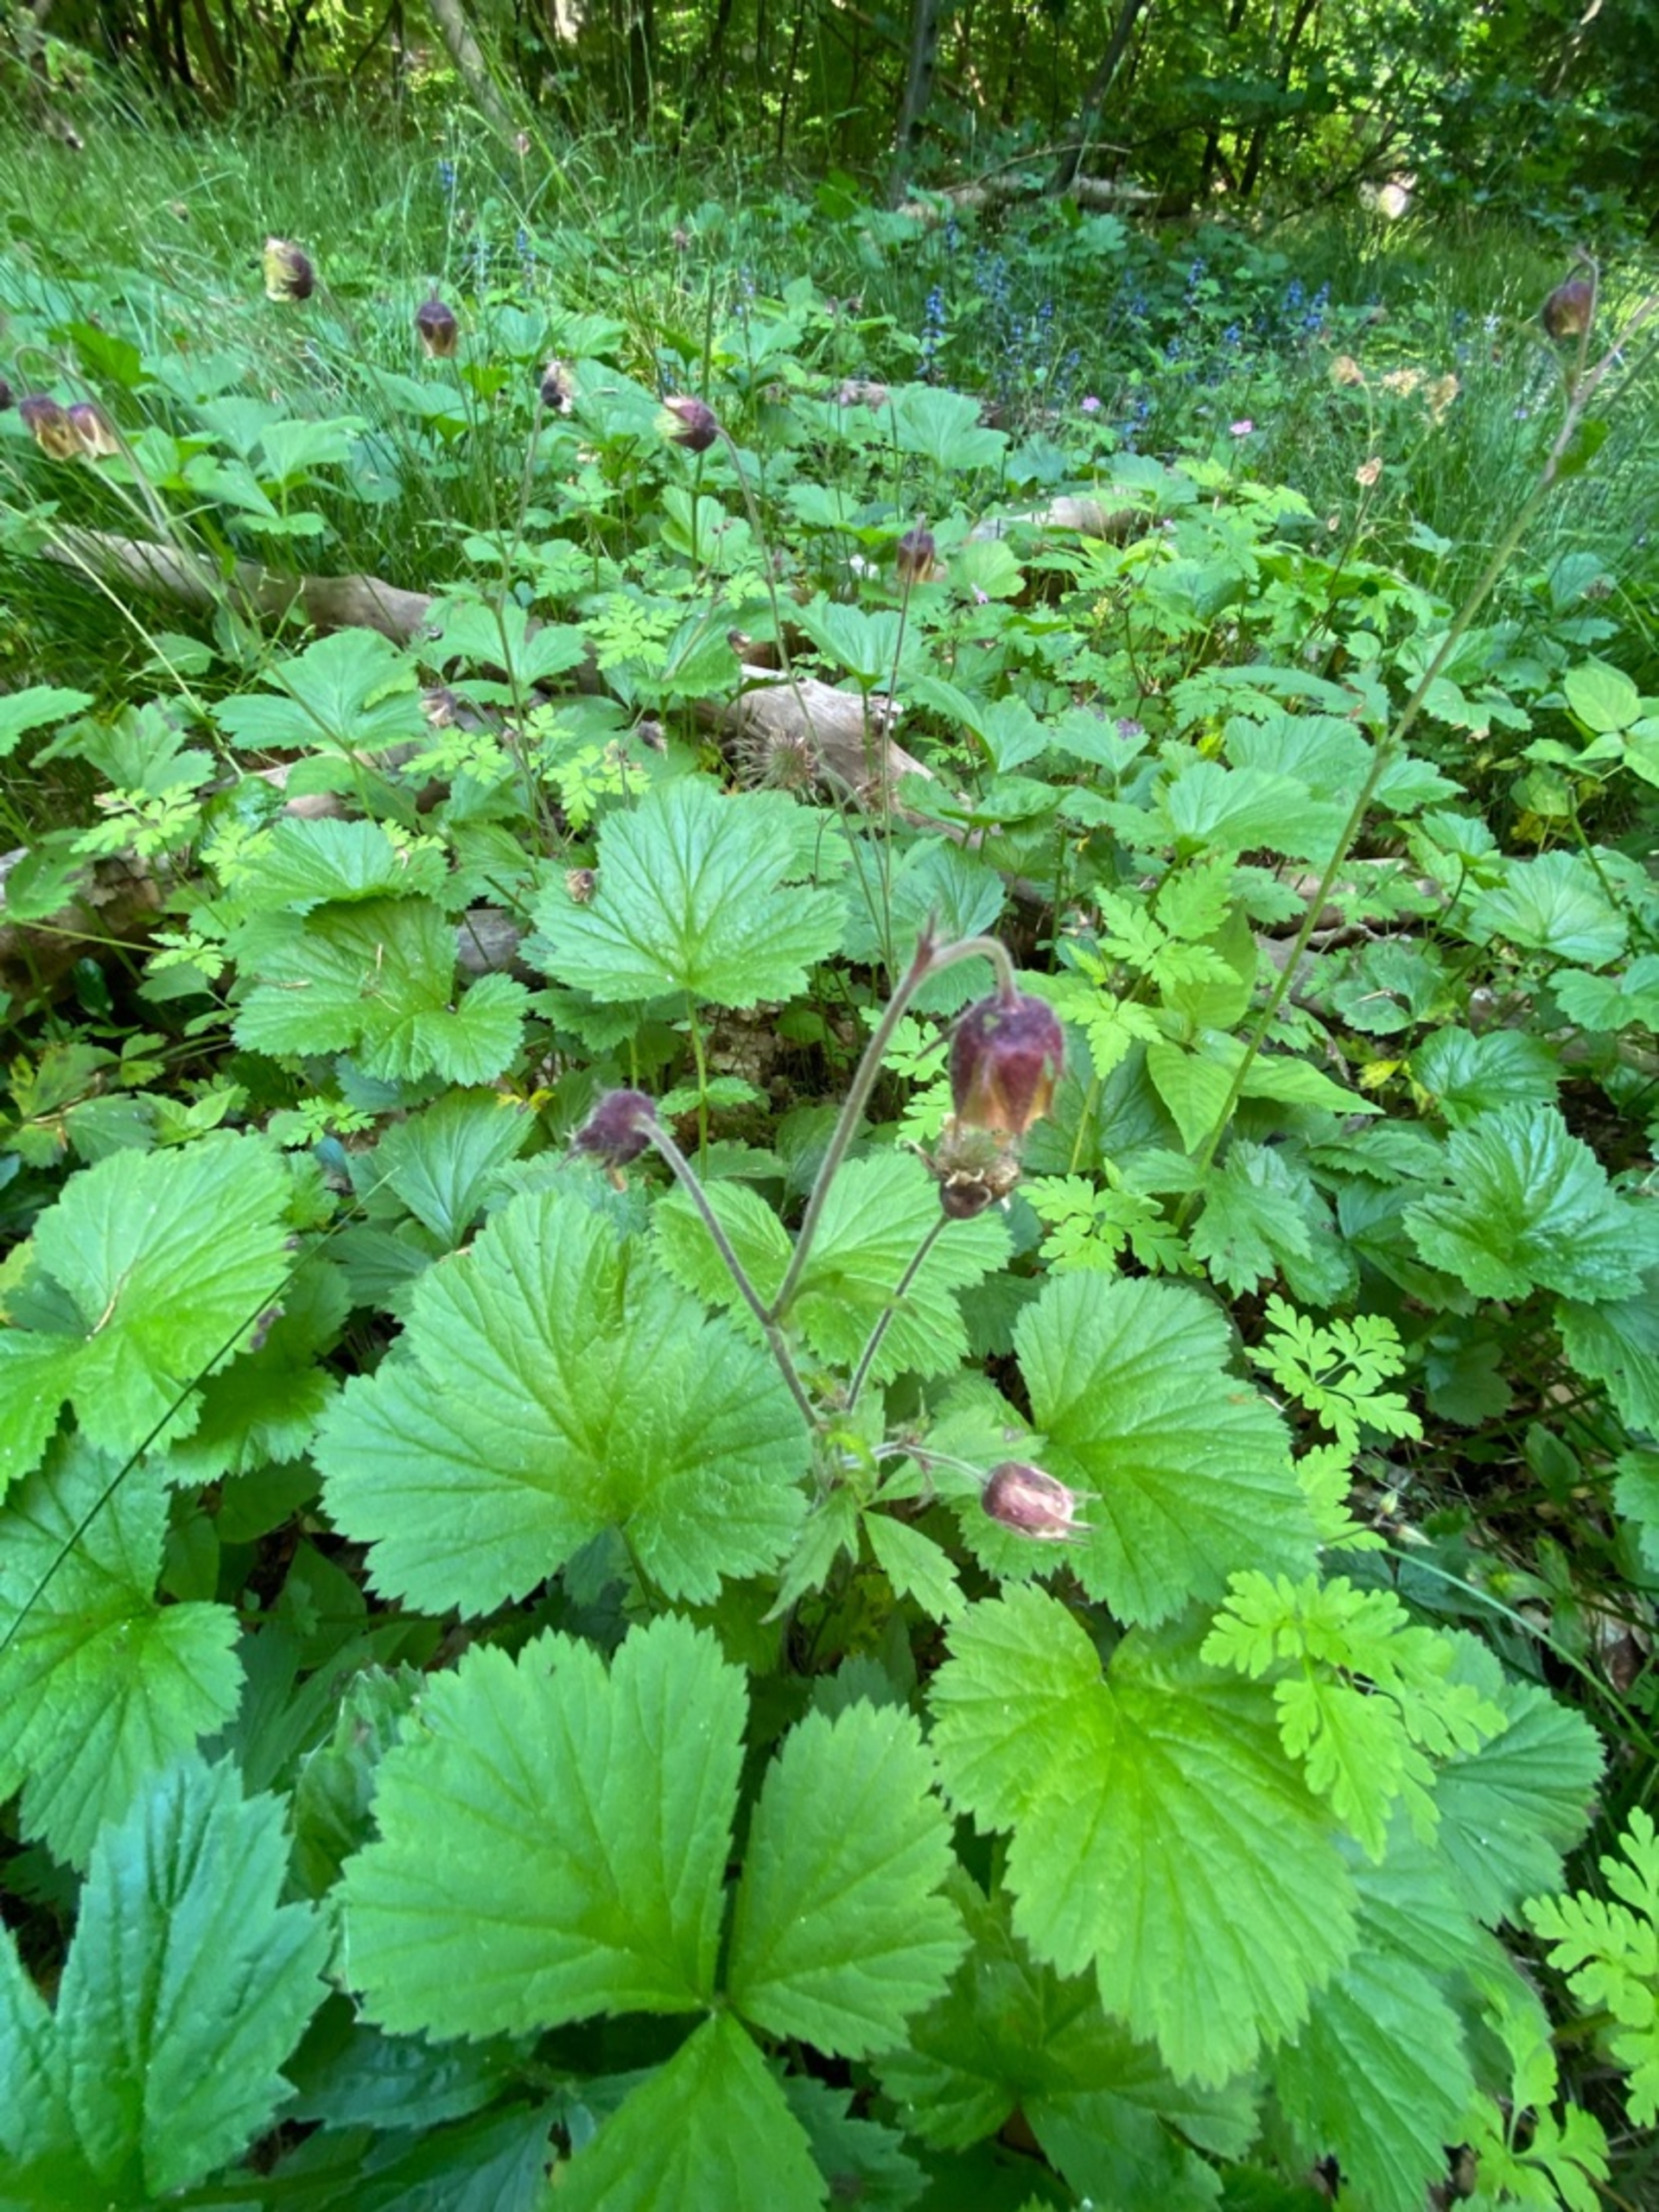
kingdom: Plantae
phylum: Tracheophyta
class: Magnoliopsida
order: Rosales
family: Rosaceae
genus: Geum
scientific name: Geum rivale
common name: Eng-nellikerod
